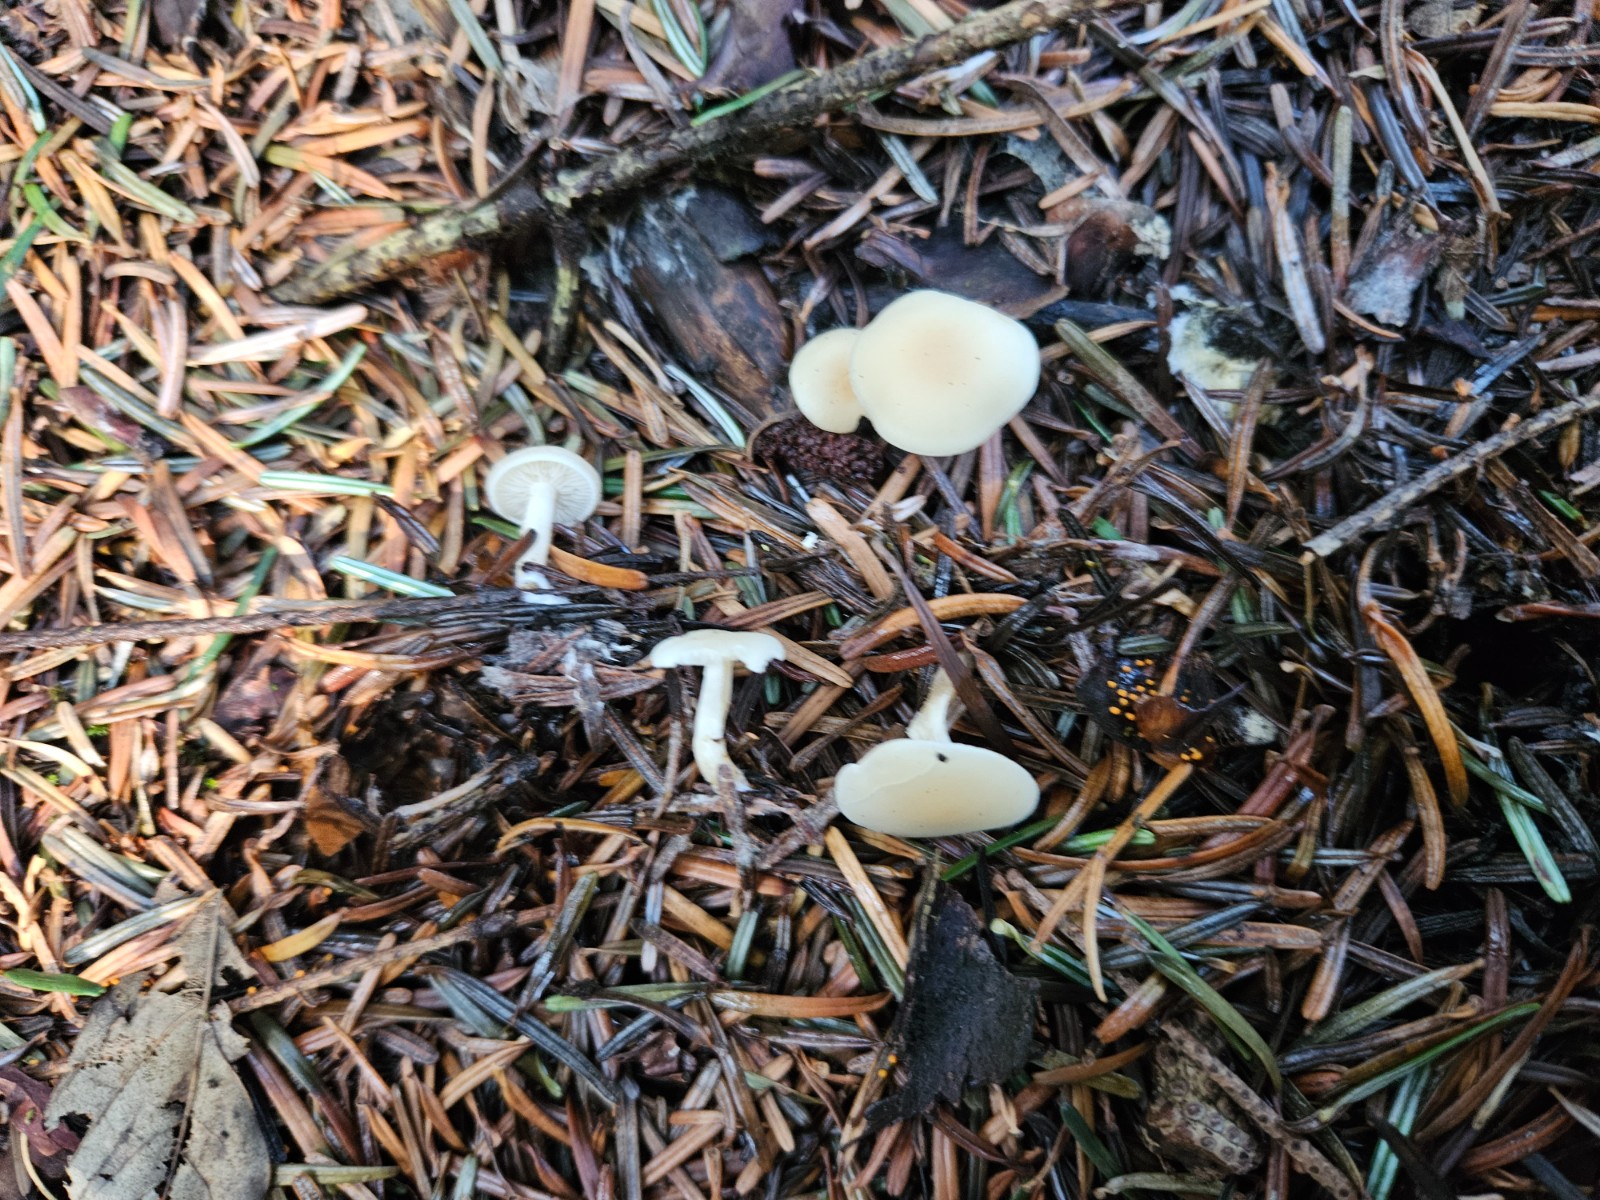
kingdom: Fungi
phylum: Basidiomycota
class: Agaricomycetes
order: Agaricales
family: Tricholomataceae
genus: Clitocybe
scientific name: Clitocybe
